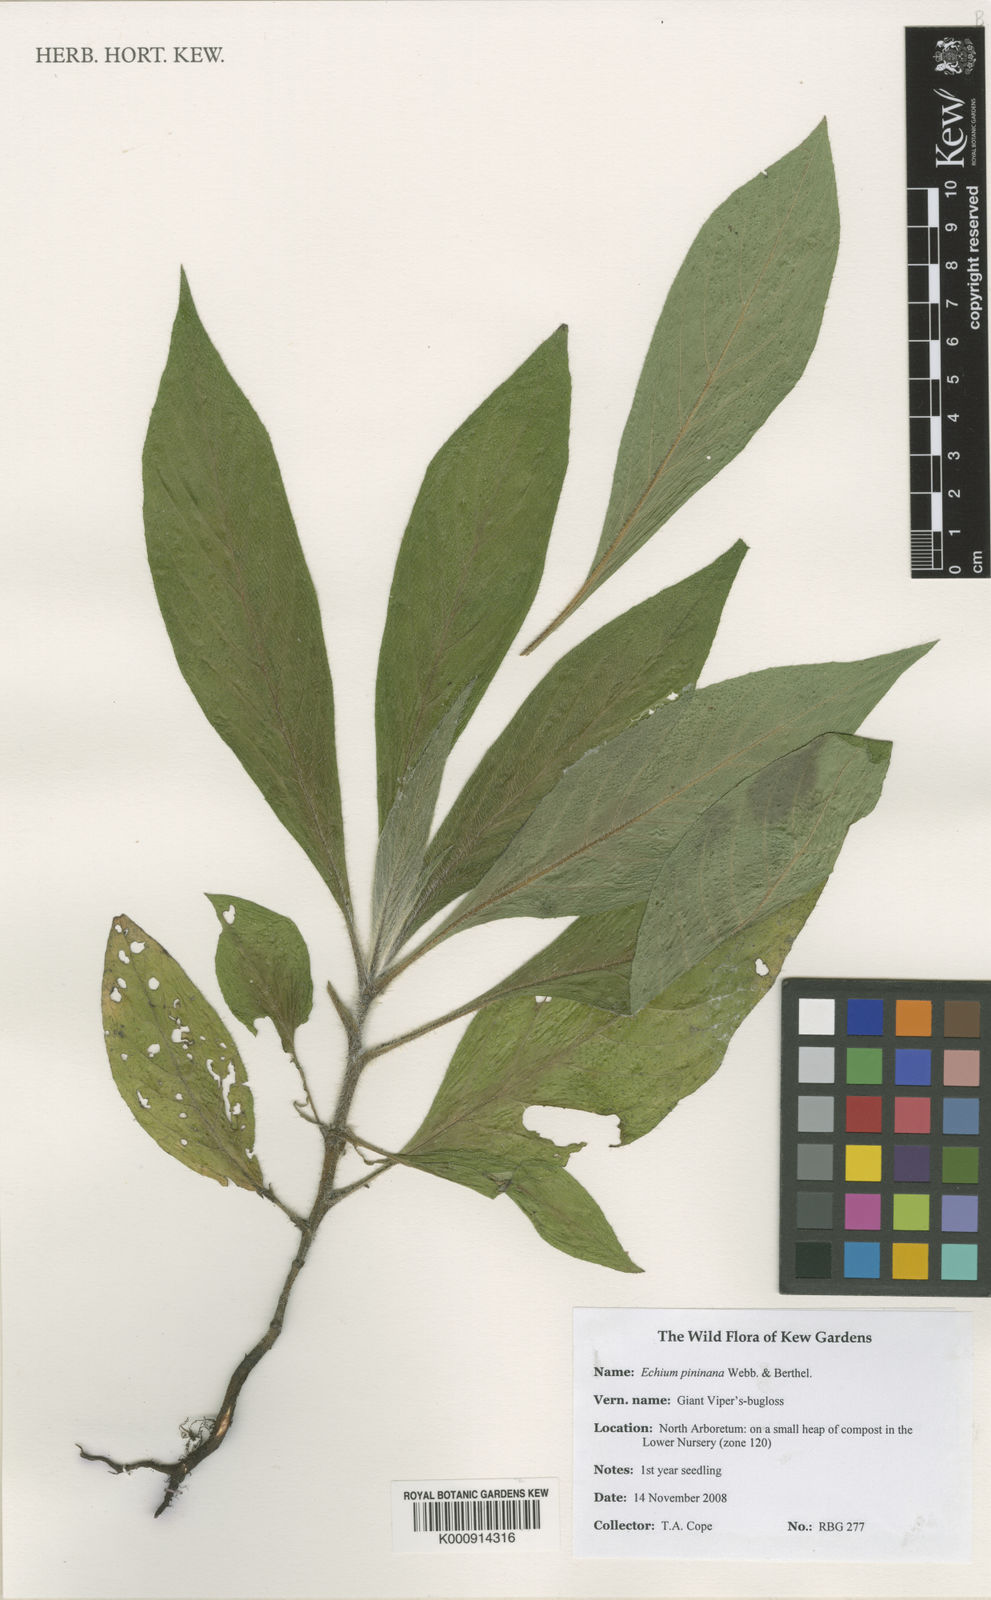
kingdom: Plantae
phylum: Tracheophyta
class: Magnoliopsida
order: Boraginales
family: Boraginaceae
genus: Echium
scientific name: Echium pininana
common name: Giant viper's-bugloss
